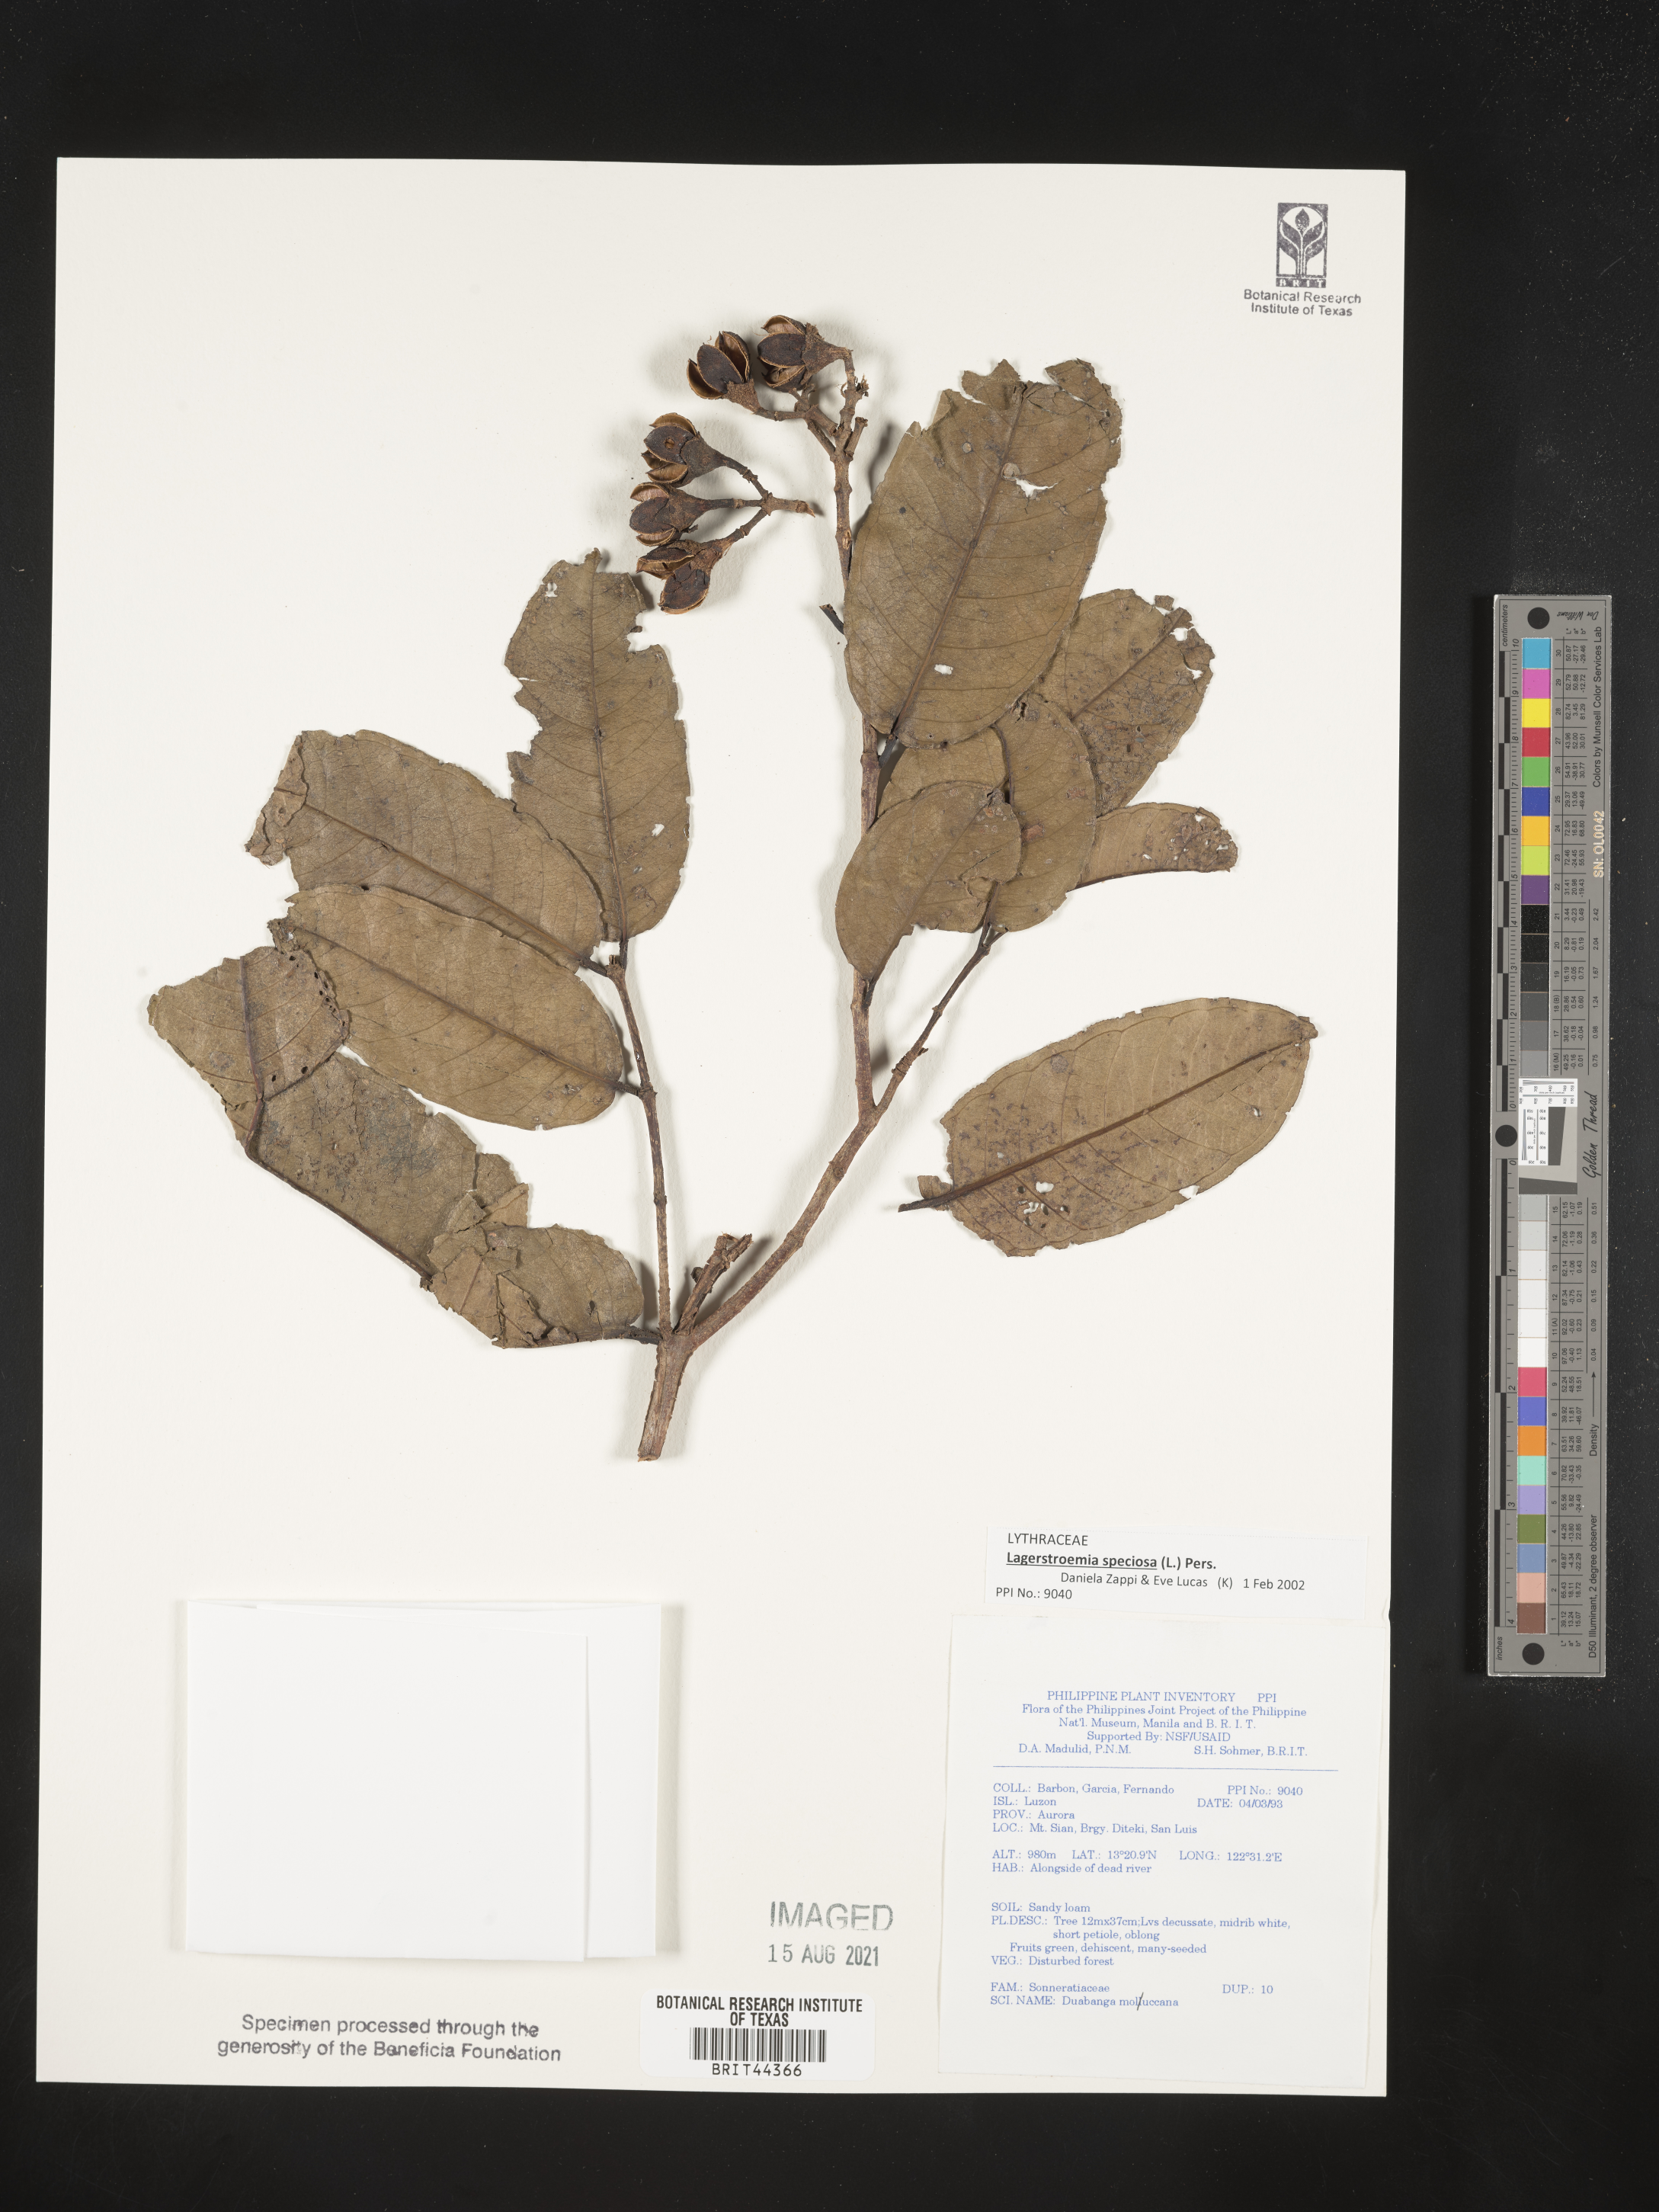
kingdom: Plantae
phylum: Tracheophyta
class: Magnoliopsida
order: Myrtales
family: Lythraceae
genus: Duabanga
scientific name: Duabanga moluccana
